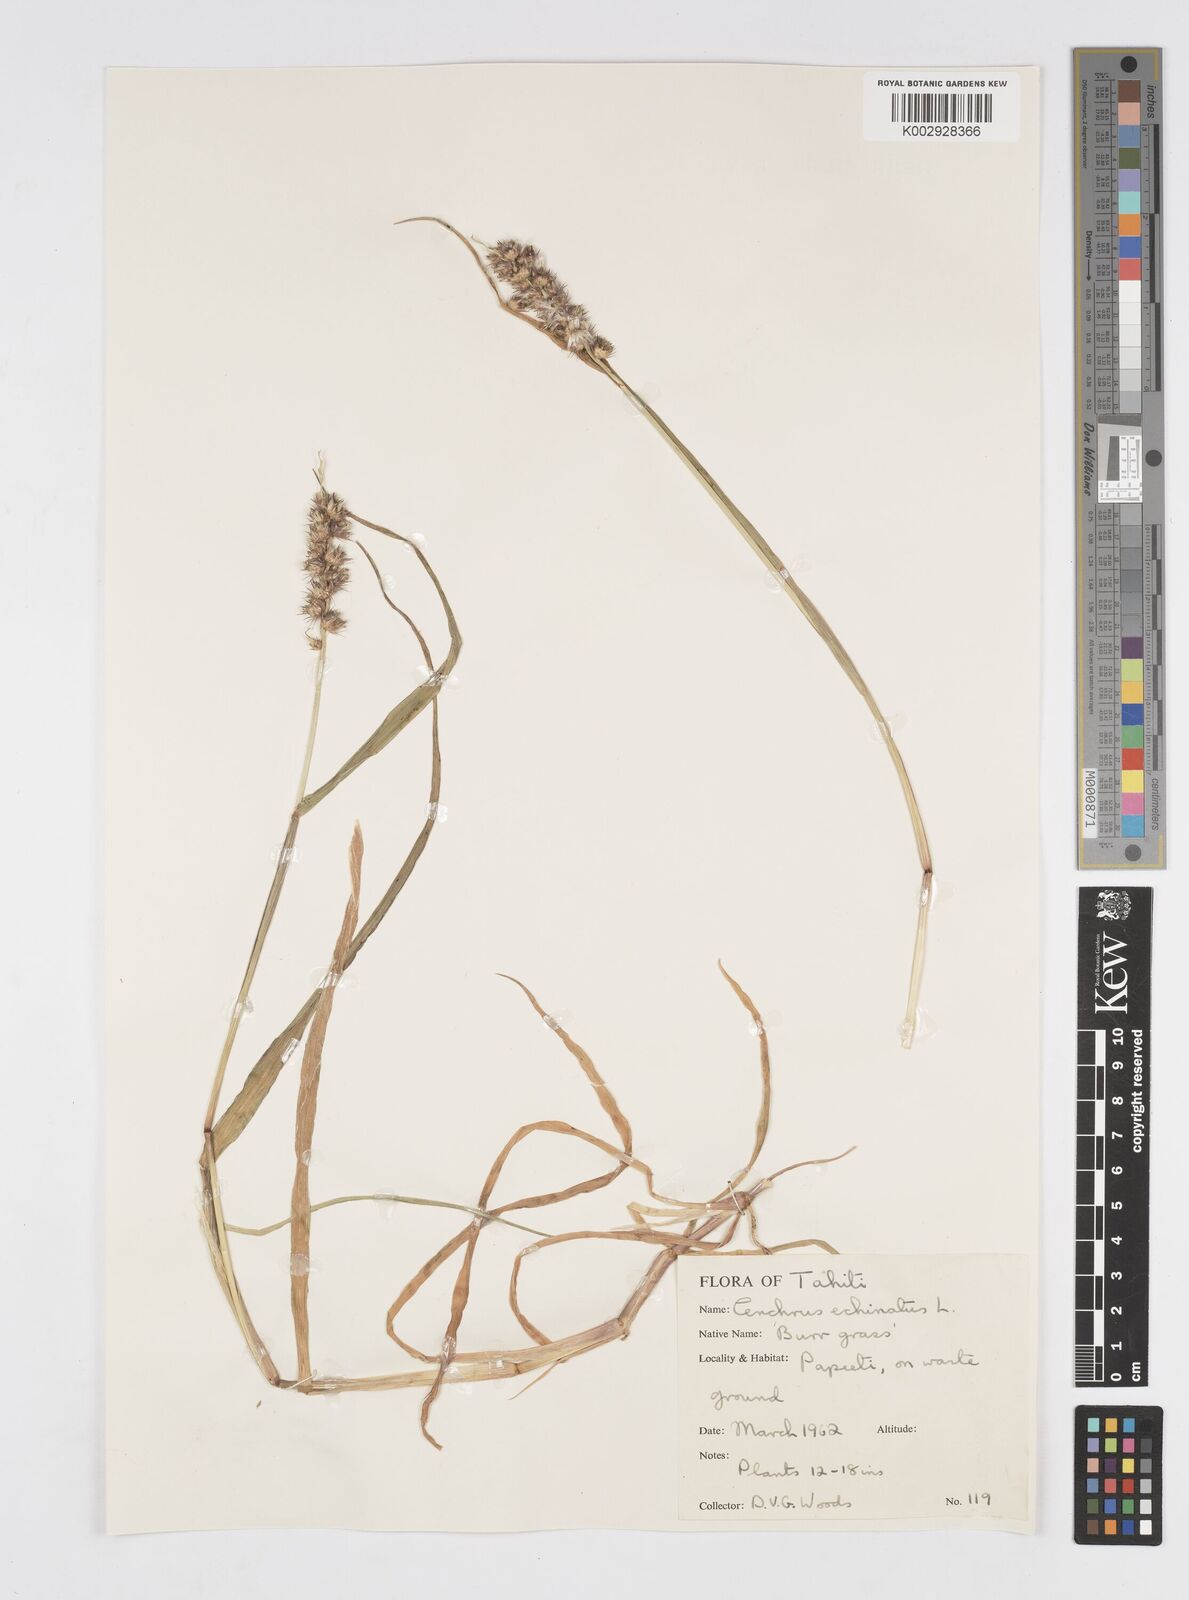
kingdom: Plantae
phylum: Tracheophyta
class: Liliopsida
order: Poales
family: Poaceae
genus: Cenchrus
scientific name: Cenchrus echinatus
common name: Southern sandbur
